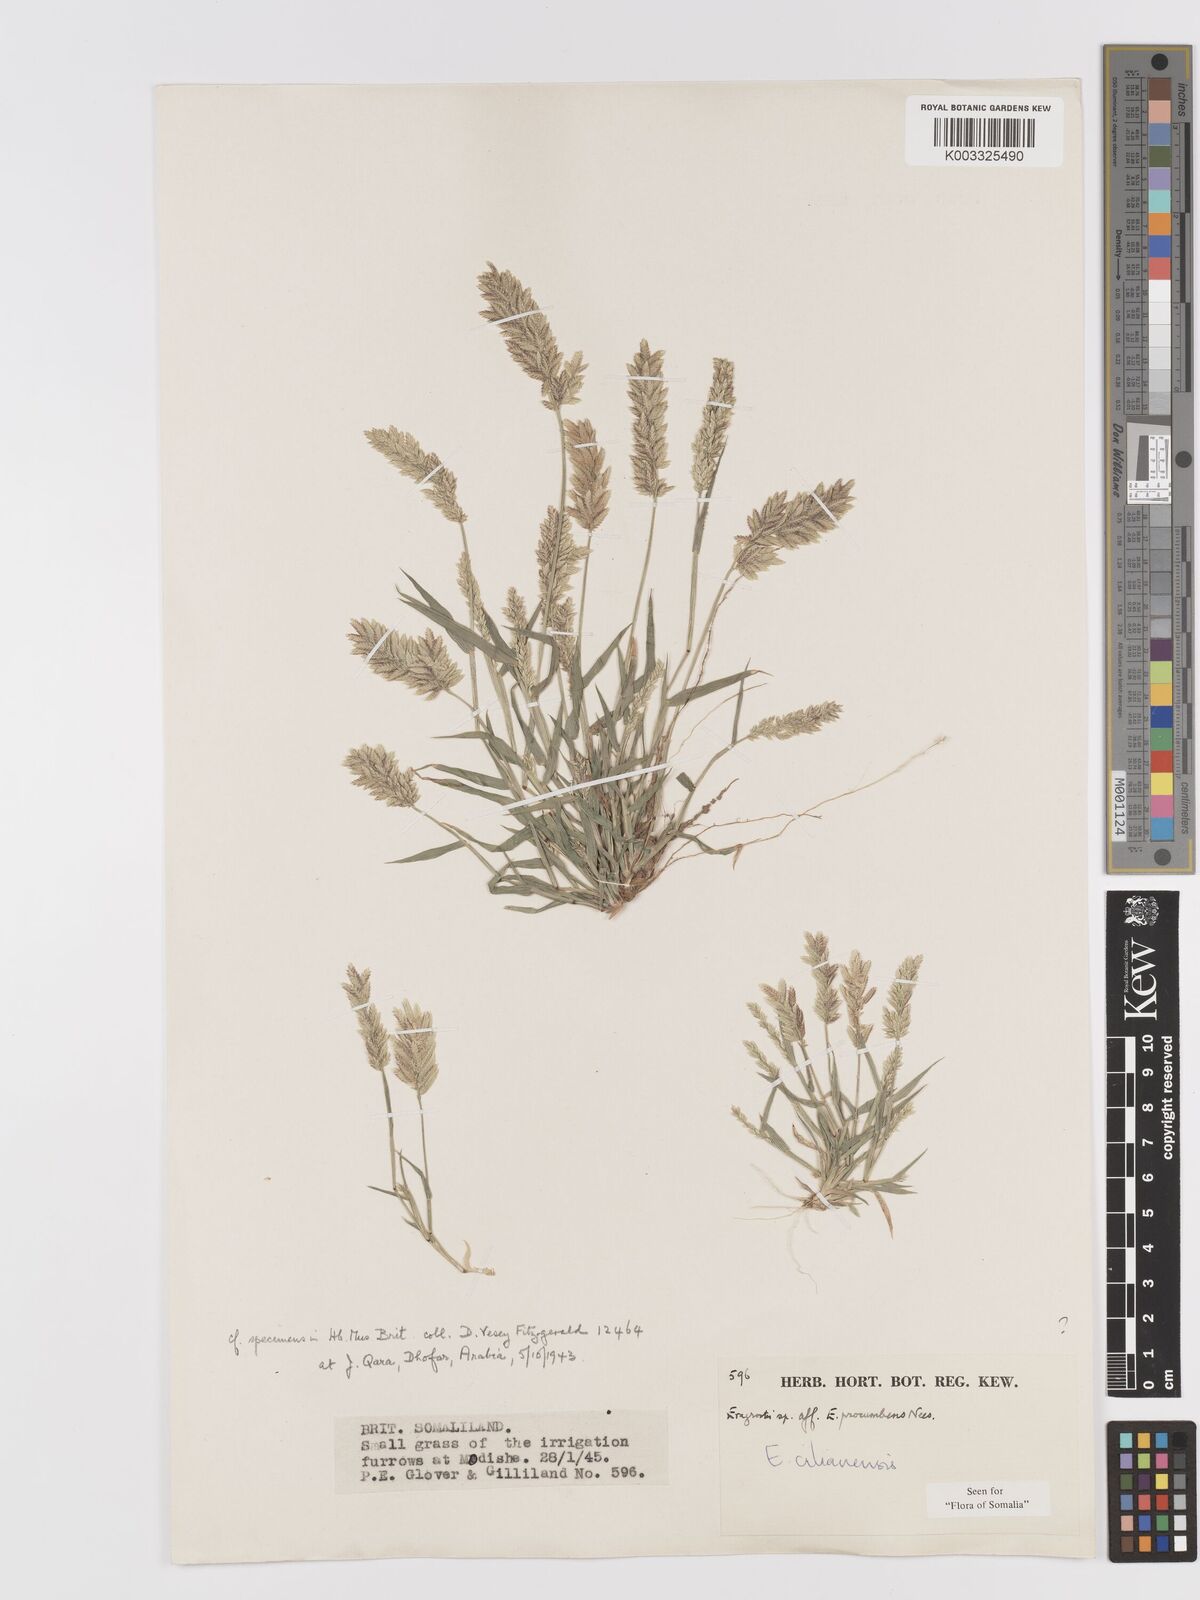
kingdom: Plantae
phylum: Tracheophyta
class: Liliopsida
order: Poales
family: Poaceae
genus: Eragrostis
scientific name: Eragrostis cilianensis
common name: Stinkgrass
